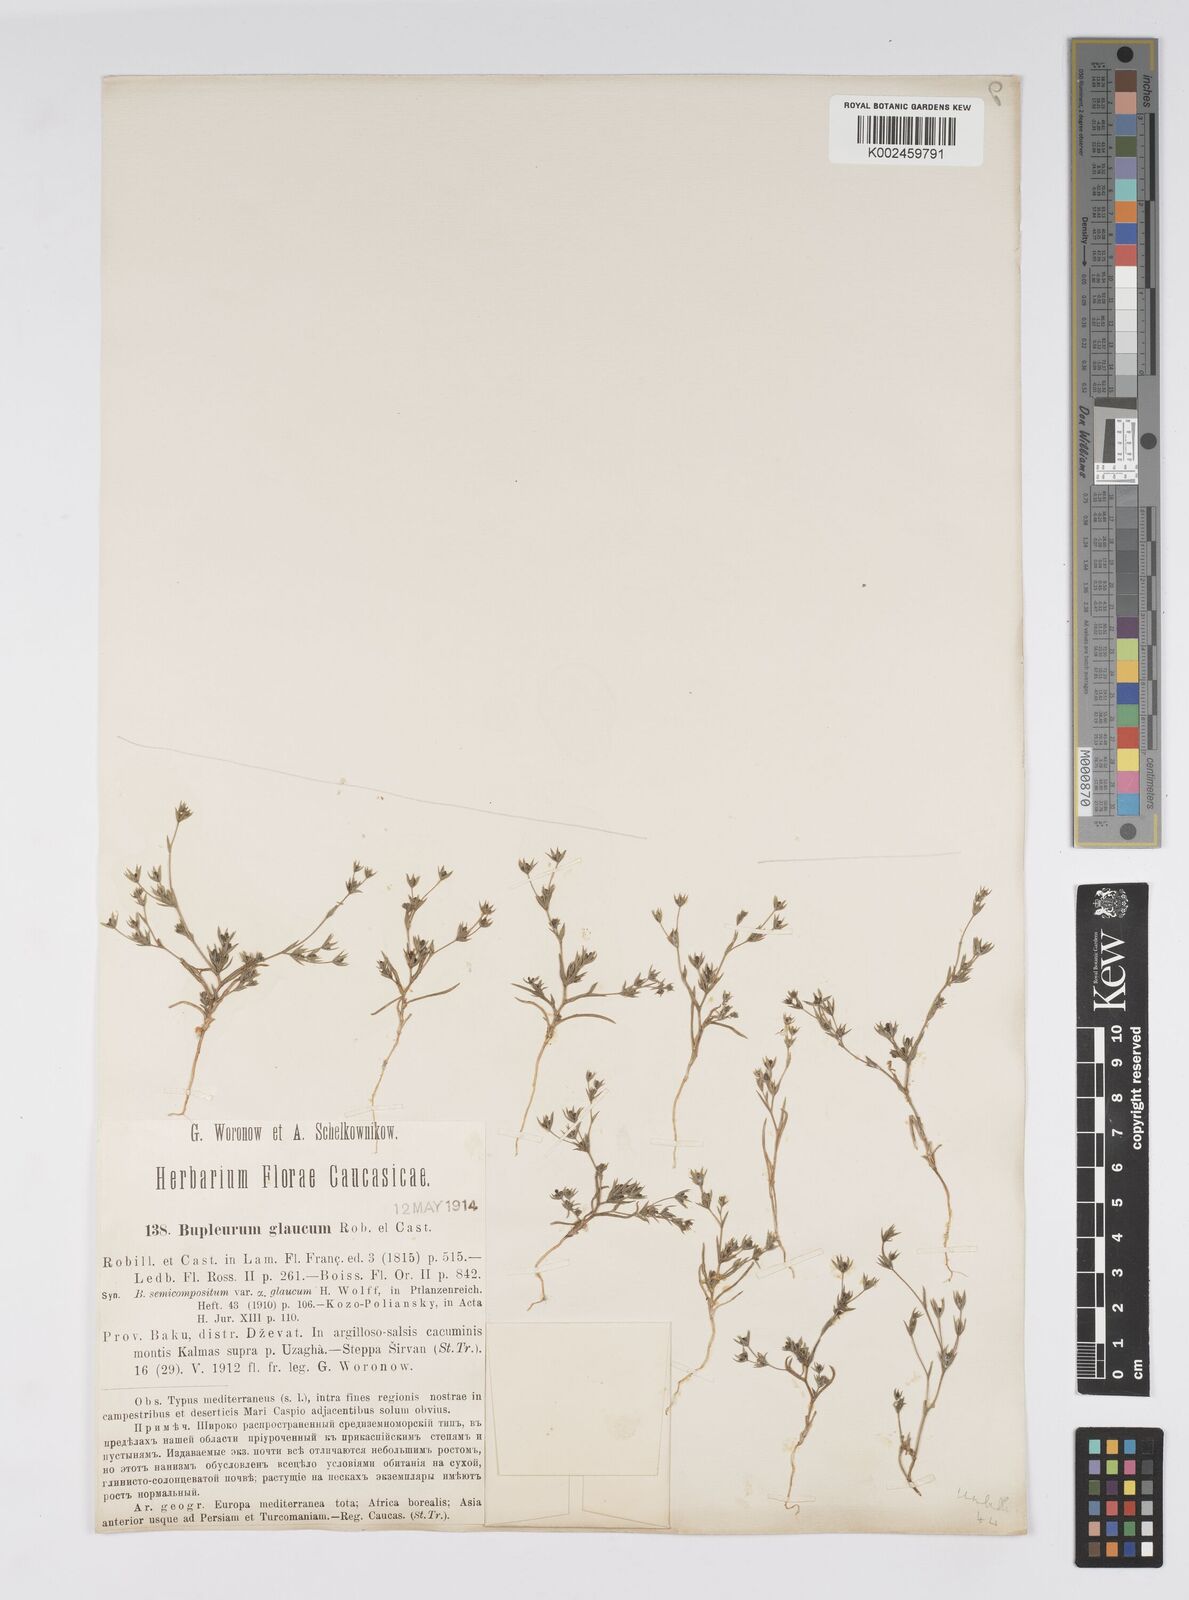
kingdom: Plantae
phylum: Tracheophyta
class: Magnoliopsida
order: Apiales
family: Apiaceae
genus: Bupleurum
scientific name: Bupleurum semicompositum
